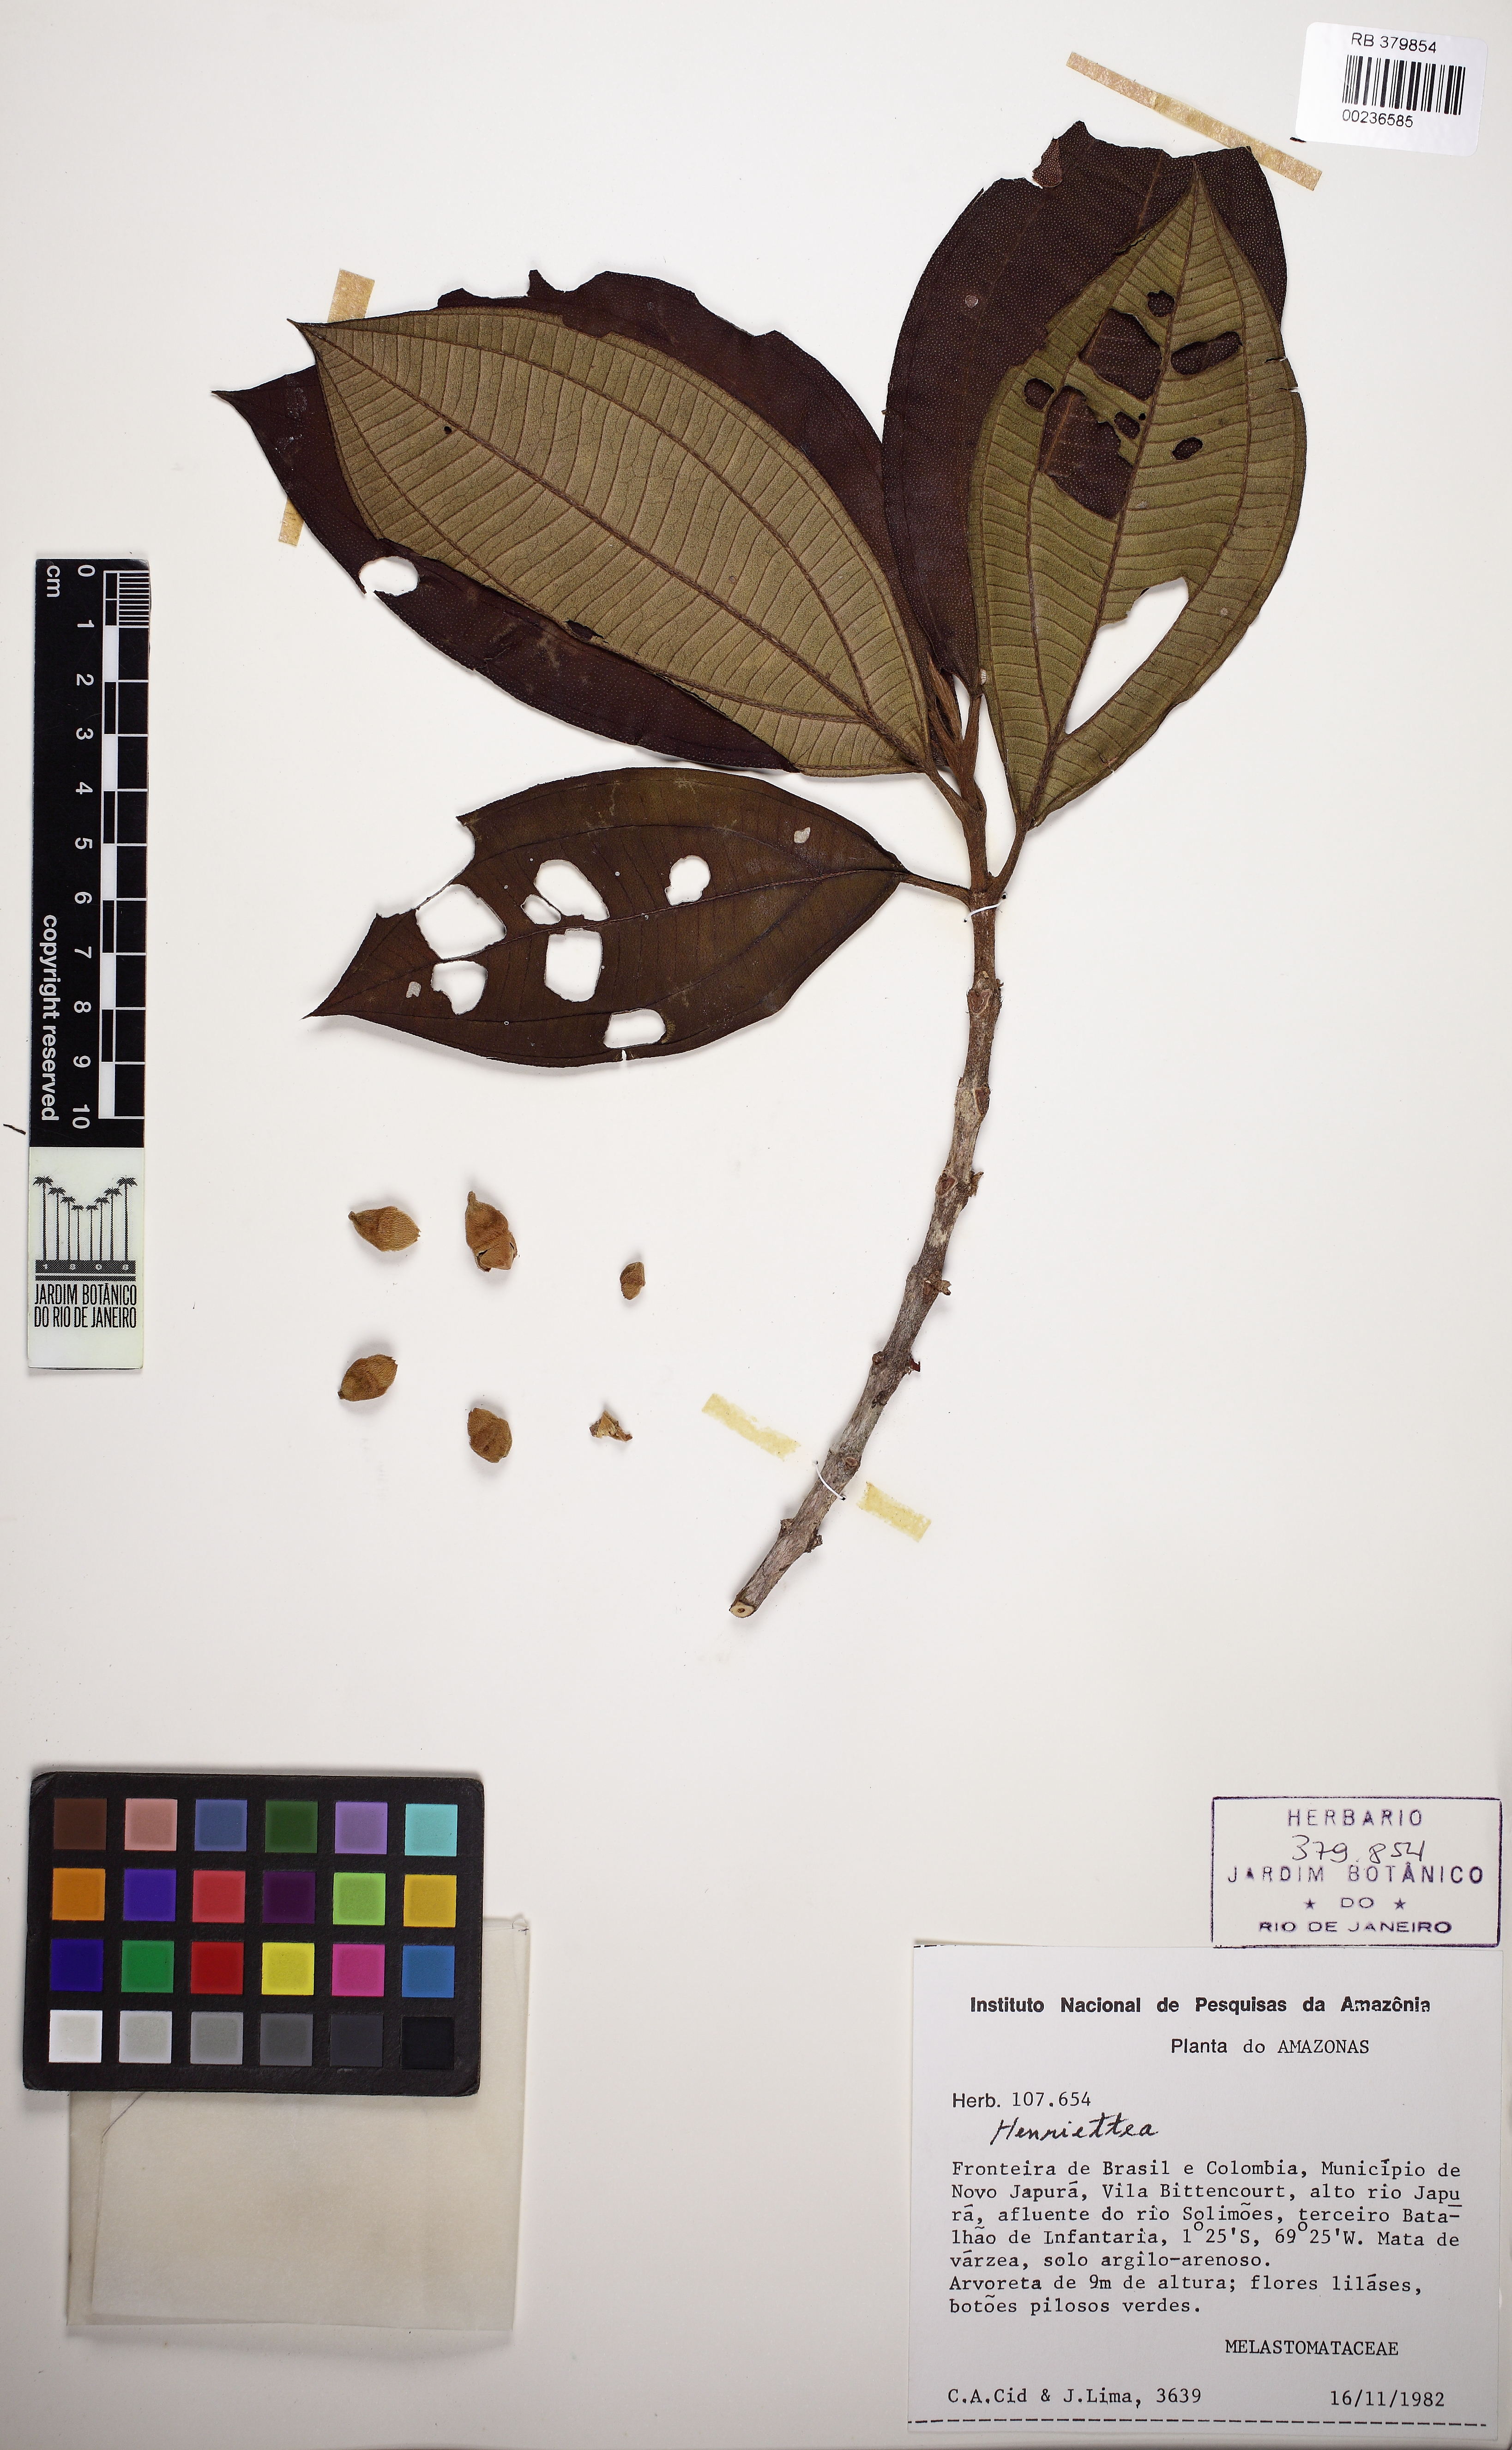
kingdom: Plantae
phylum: Tracheophyta
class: Magnoliopsida
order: Myrtales
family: Melastomataceae
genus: Henriettea
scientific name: Henriettea
